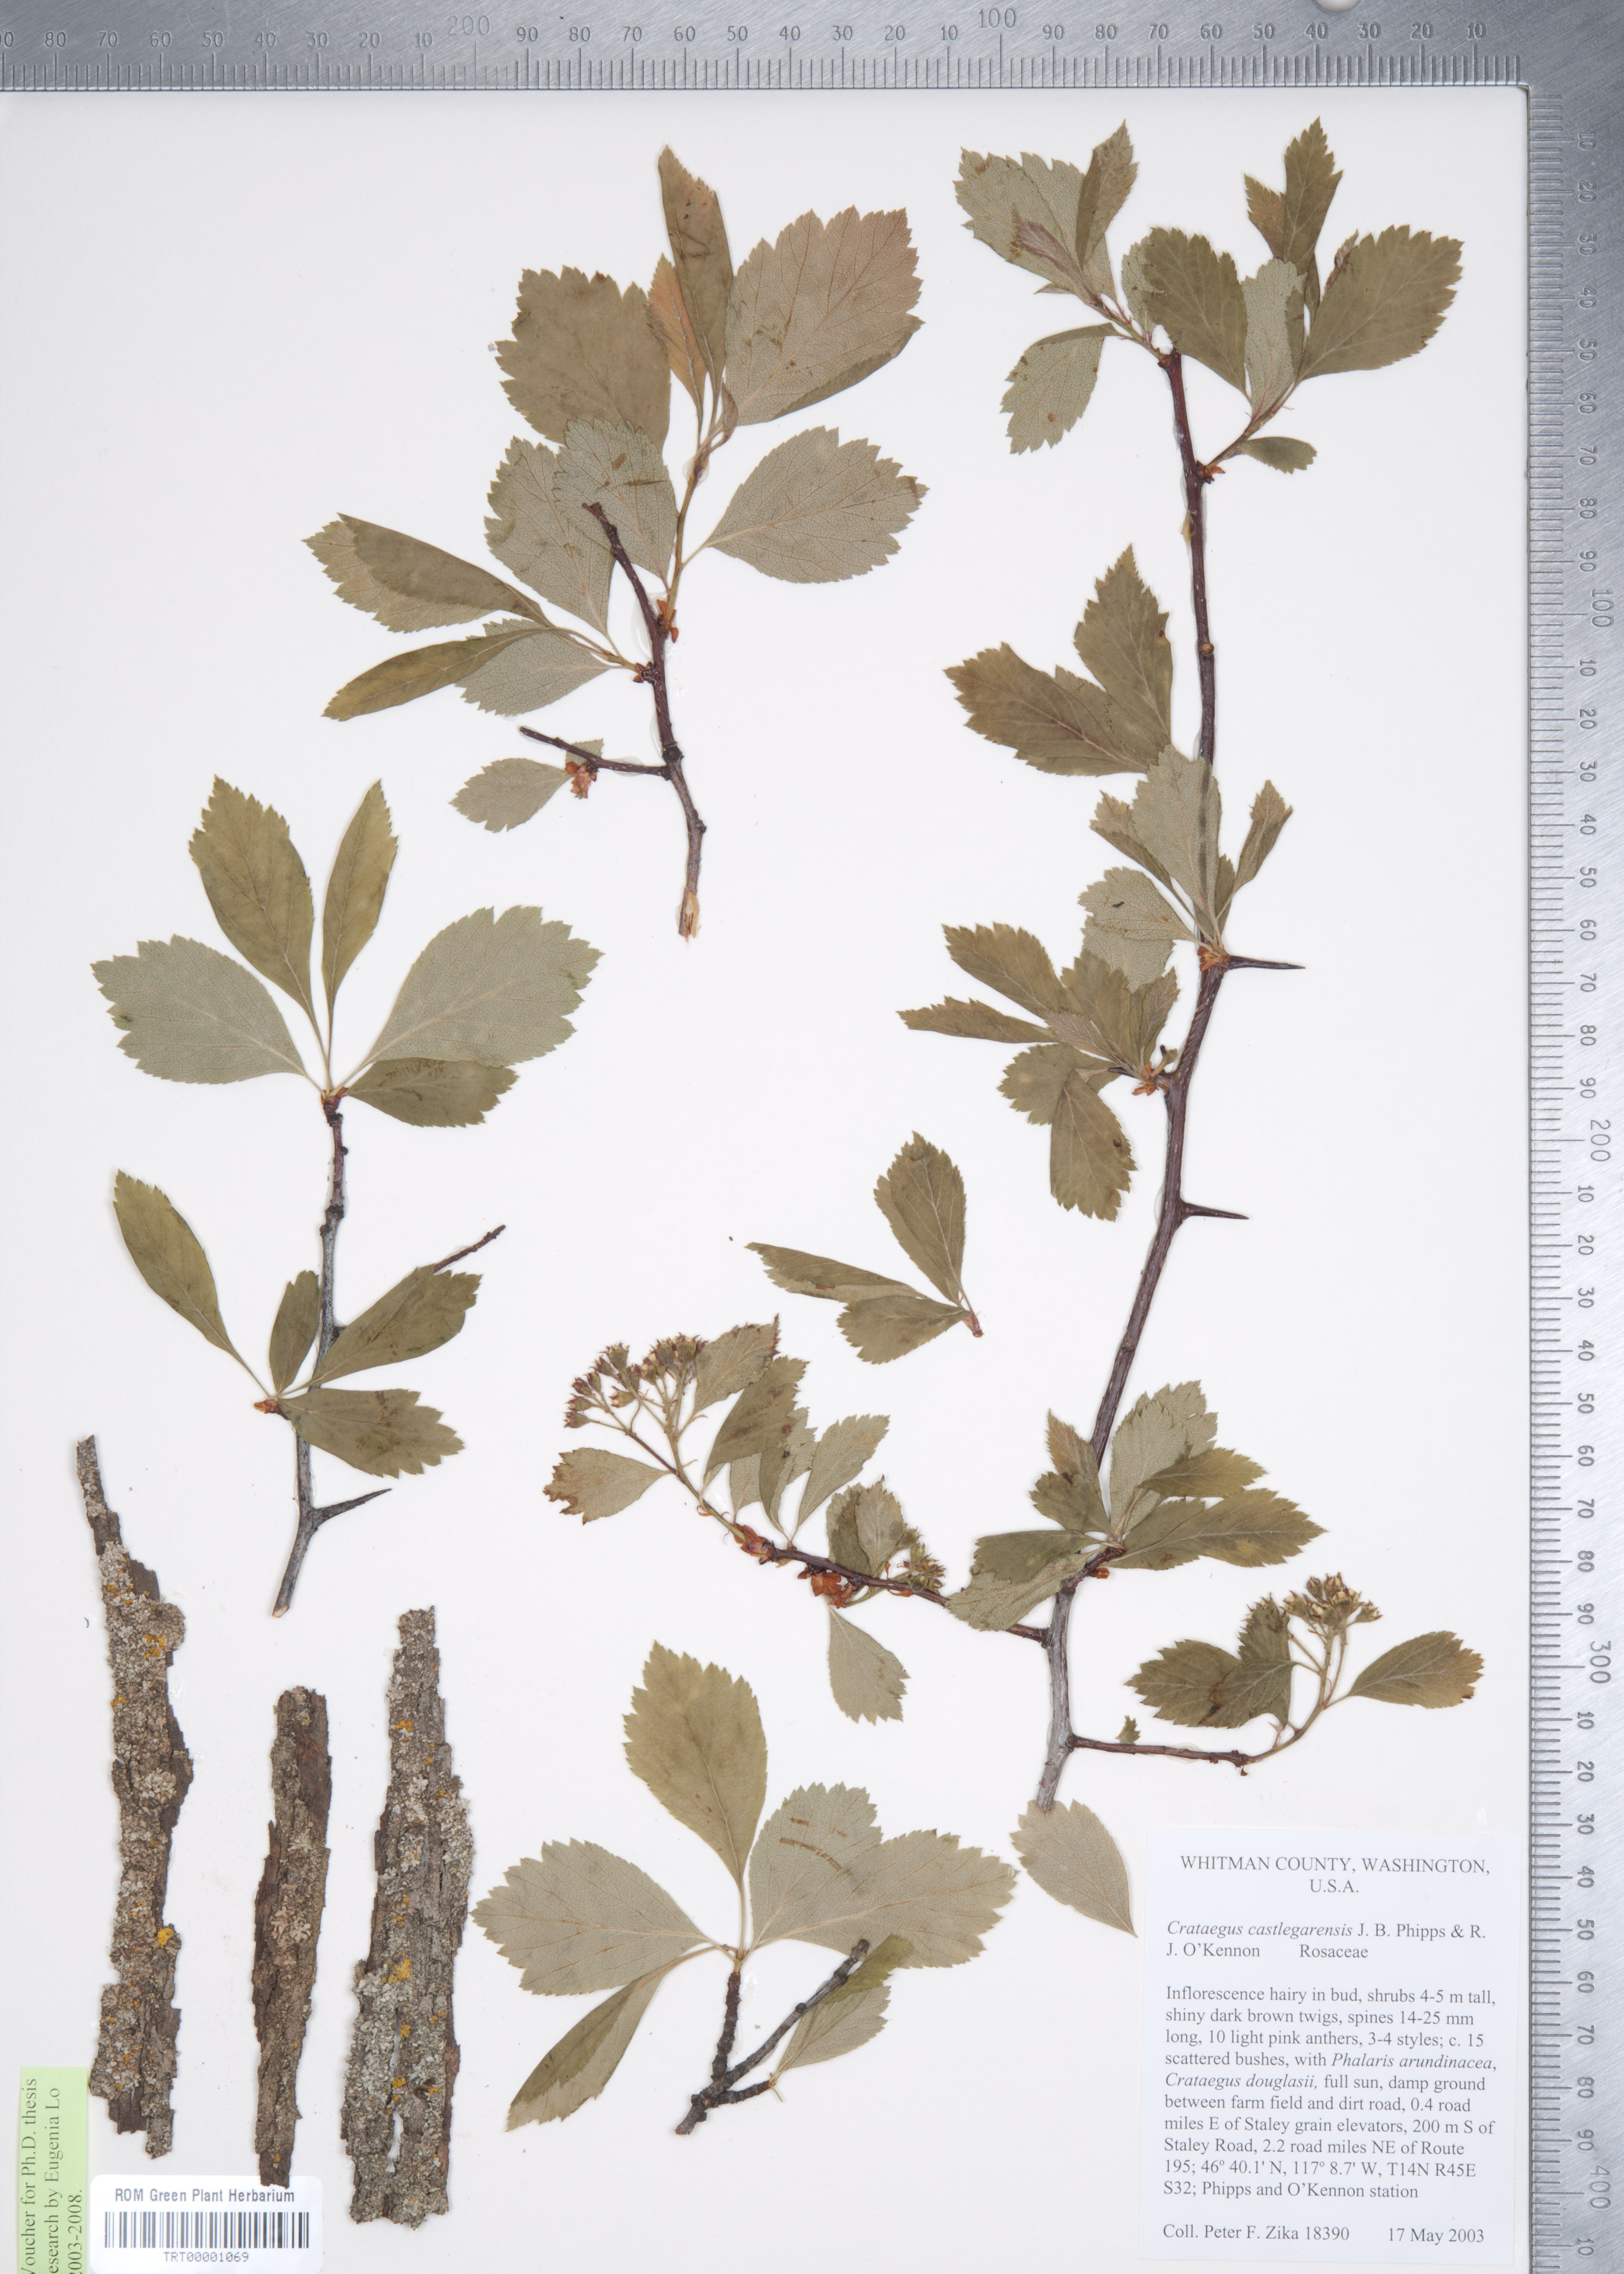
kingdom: Plantae
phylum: Tracheophyta
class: Magnoliopsida
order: Rosales
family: Rosaceae
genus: Crataegus
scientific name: Crataegus castlegarensis
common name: Castlegar hawthorn
